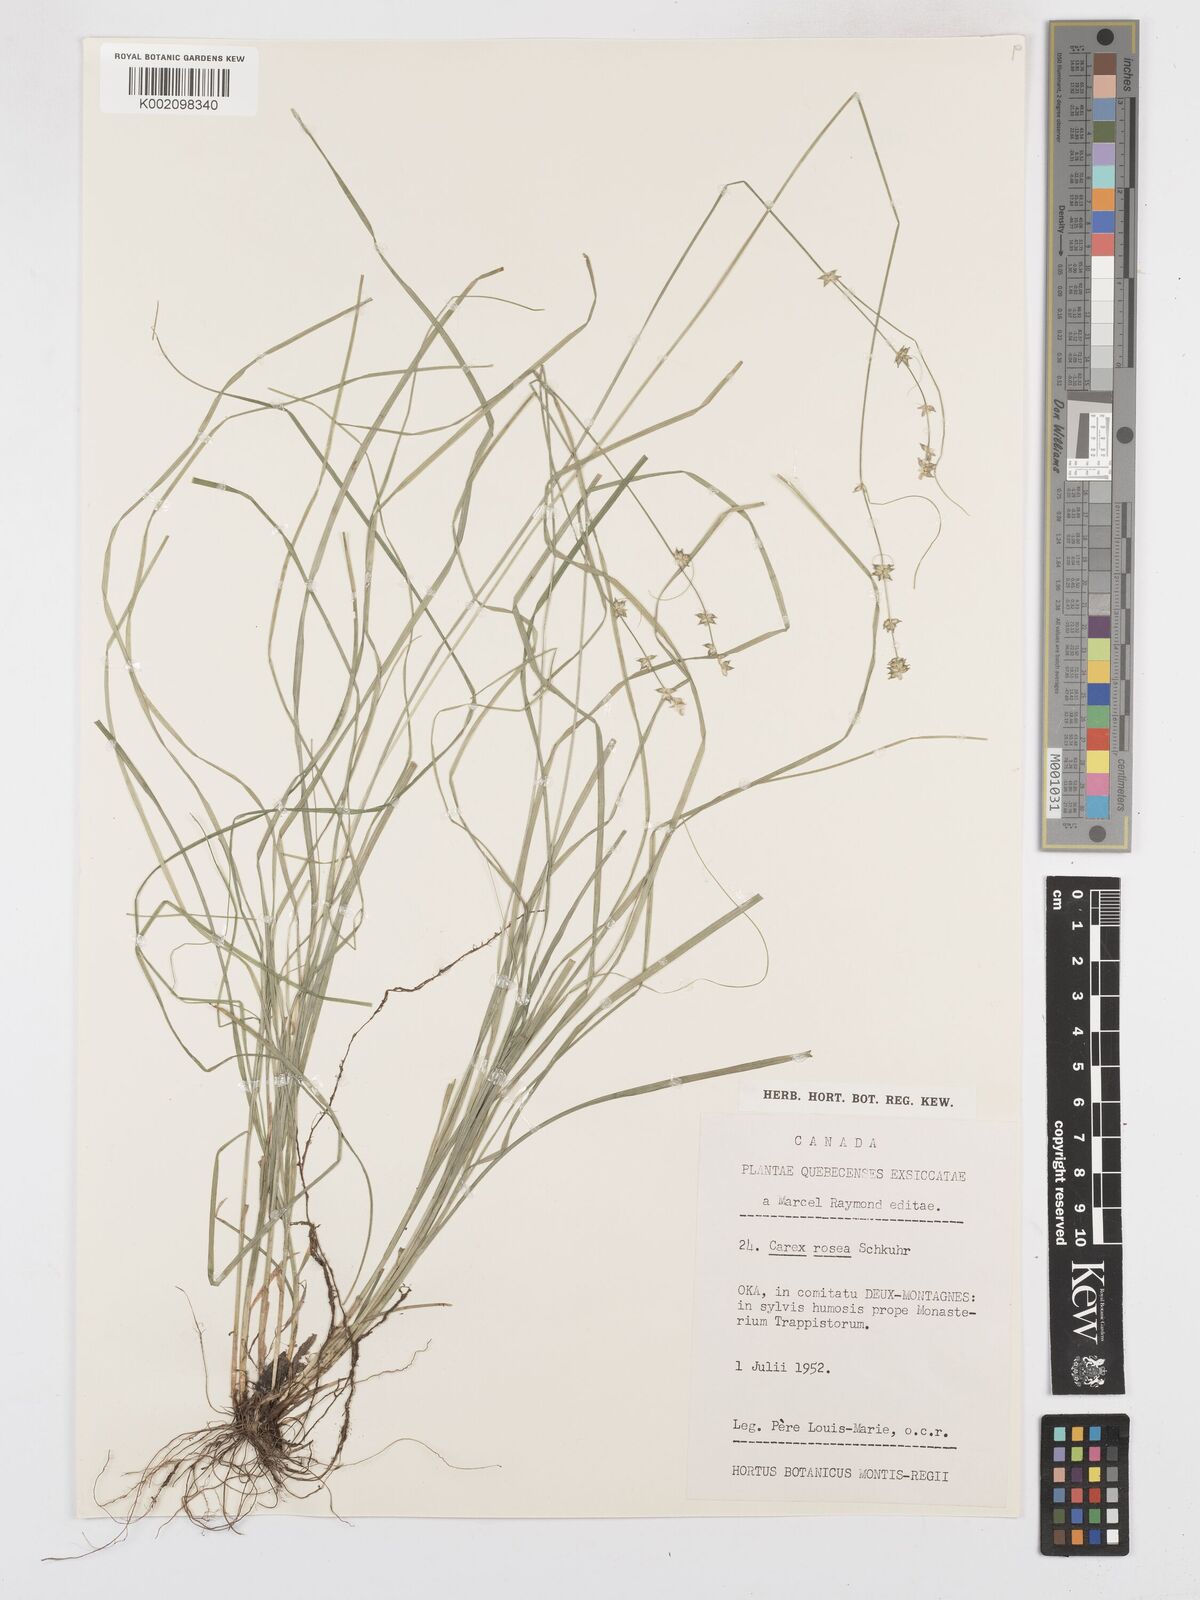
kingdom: Plantae
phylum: Tracheophyta
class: Liliopsida
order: Poales
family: Cyperaceae
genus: Carex
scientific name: Carex rosea
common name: Curly-styled wood sedge
